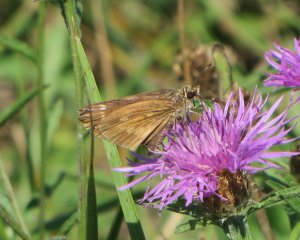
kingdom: Animalia
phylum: Arthropoda
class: Insecta
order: Lepidoptera
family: Hesperiidae
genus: Poanes
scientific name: Poanes viator
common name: Broad-winged Skipper
